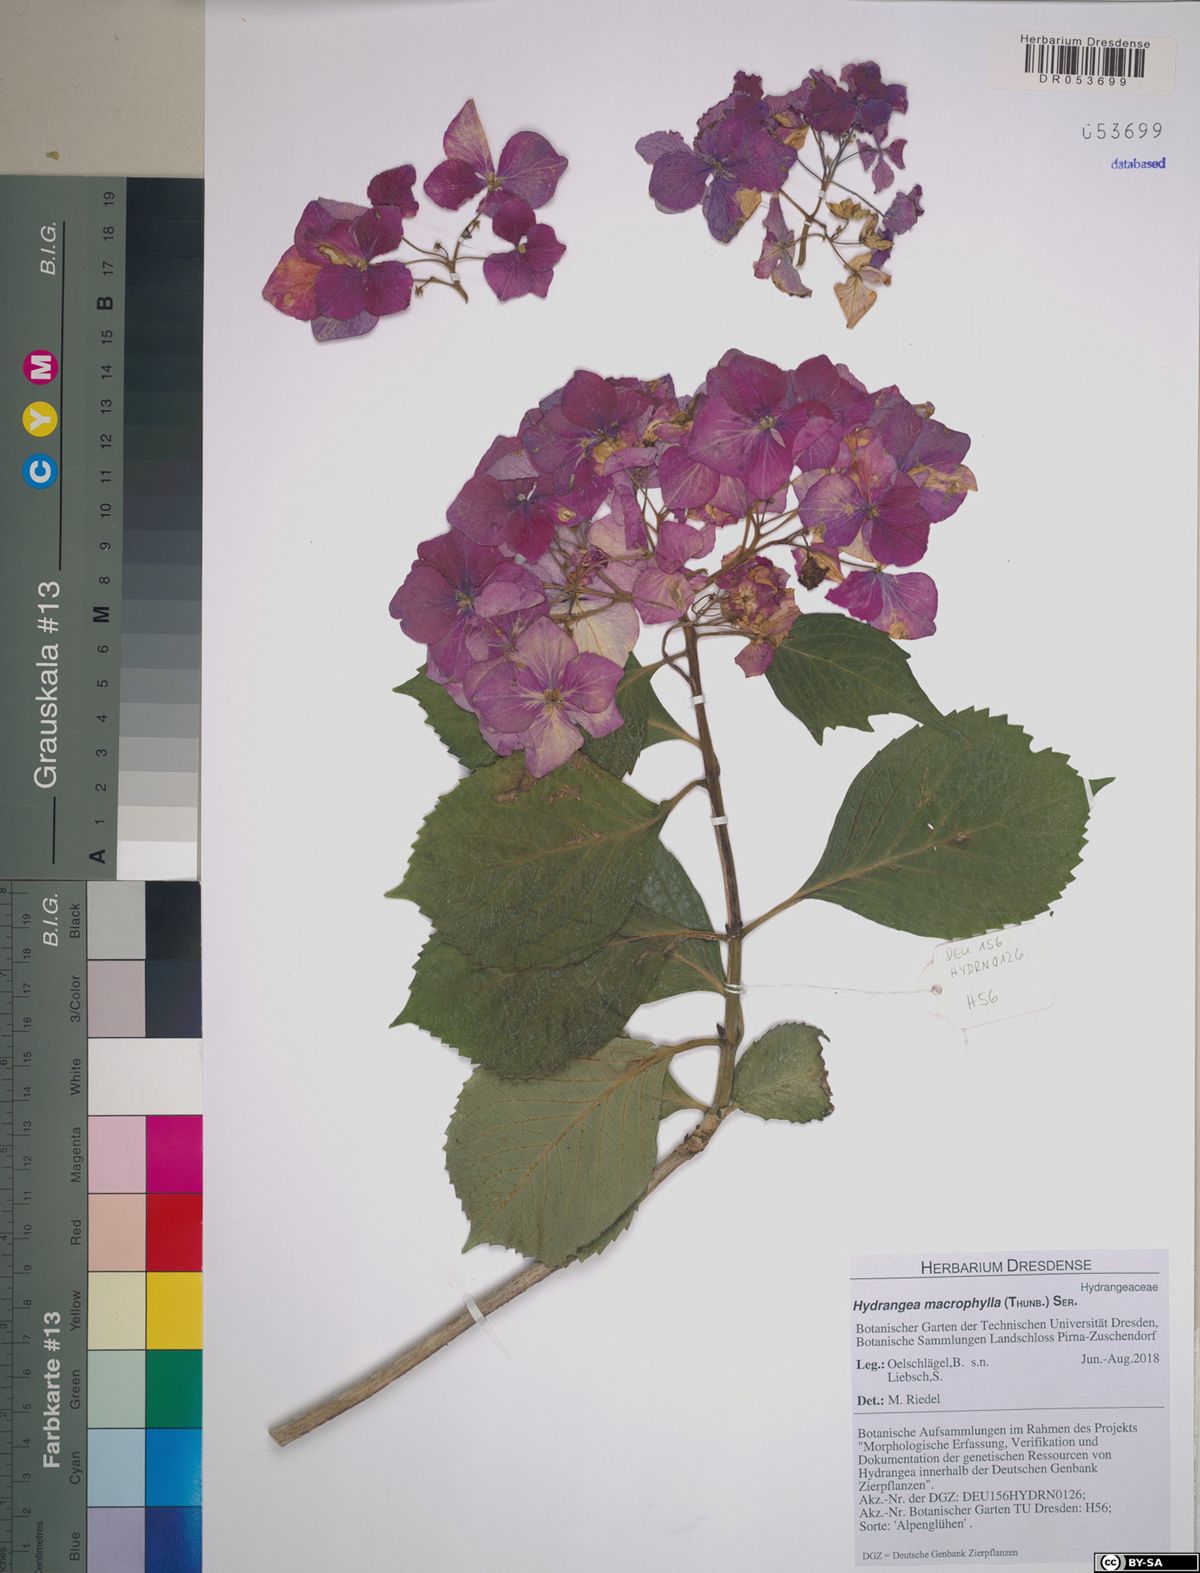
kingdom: Plantae
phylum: Tracheophyta
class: Magnoliopsida
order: Cornales
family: Hydrangeaceae
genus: Hydrangea
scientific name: Hydrangea macrophylla
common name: Hydrangea
